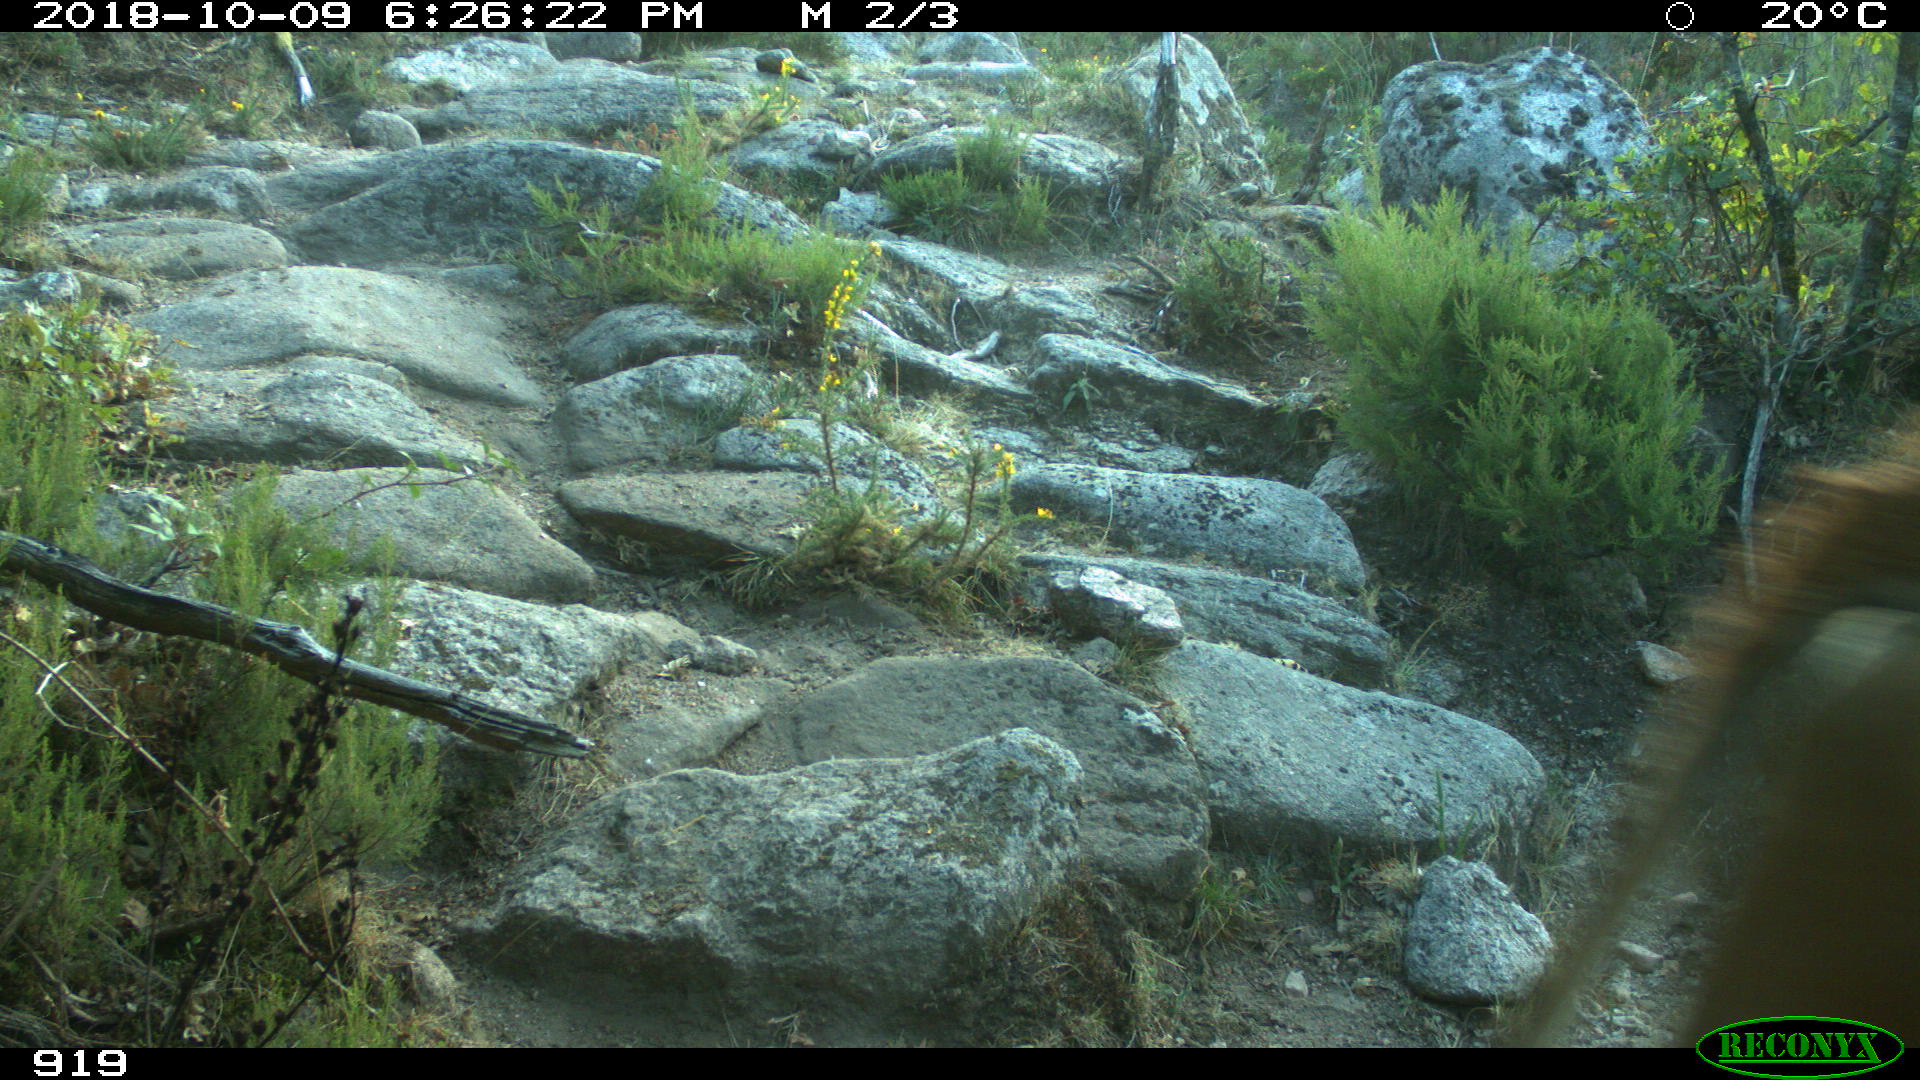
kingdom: Animalia
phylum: Chordata
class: Mammalia
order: Artiodactyla
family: Bovidae
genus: Bos
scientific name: Bos taurus
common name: Domesticated cattle
